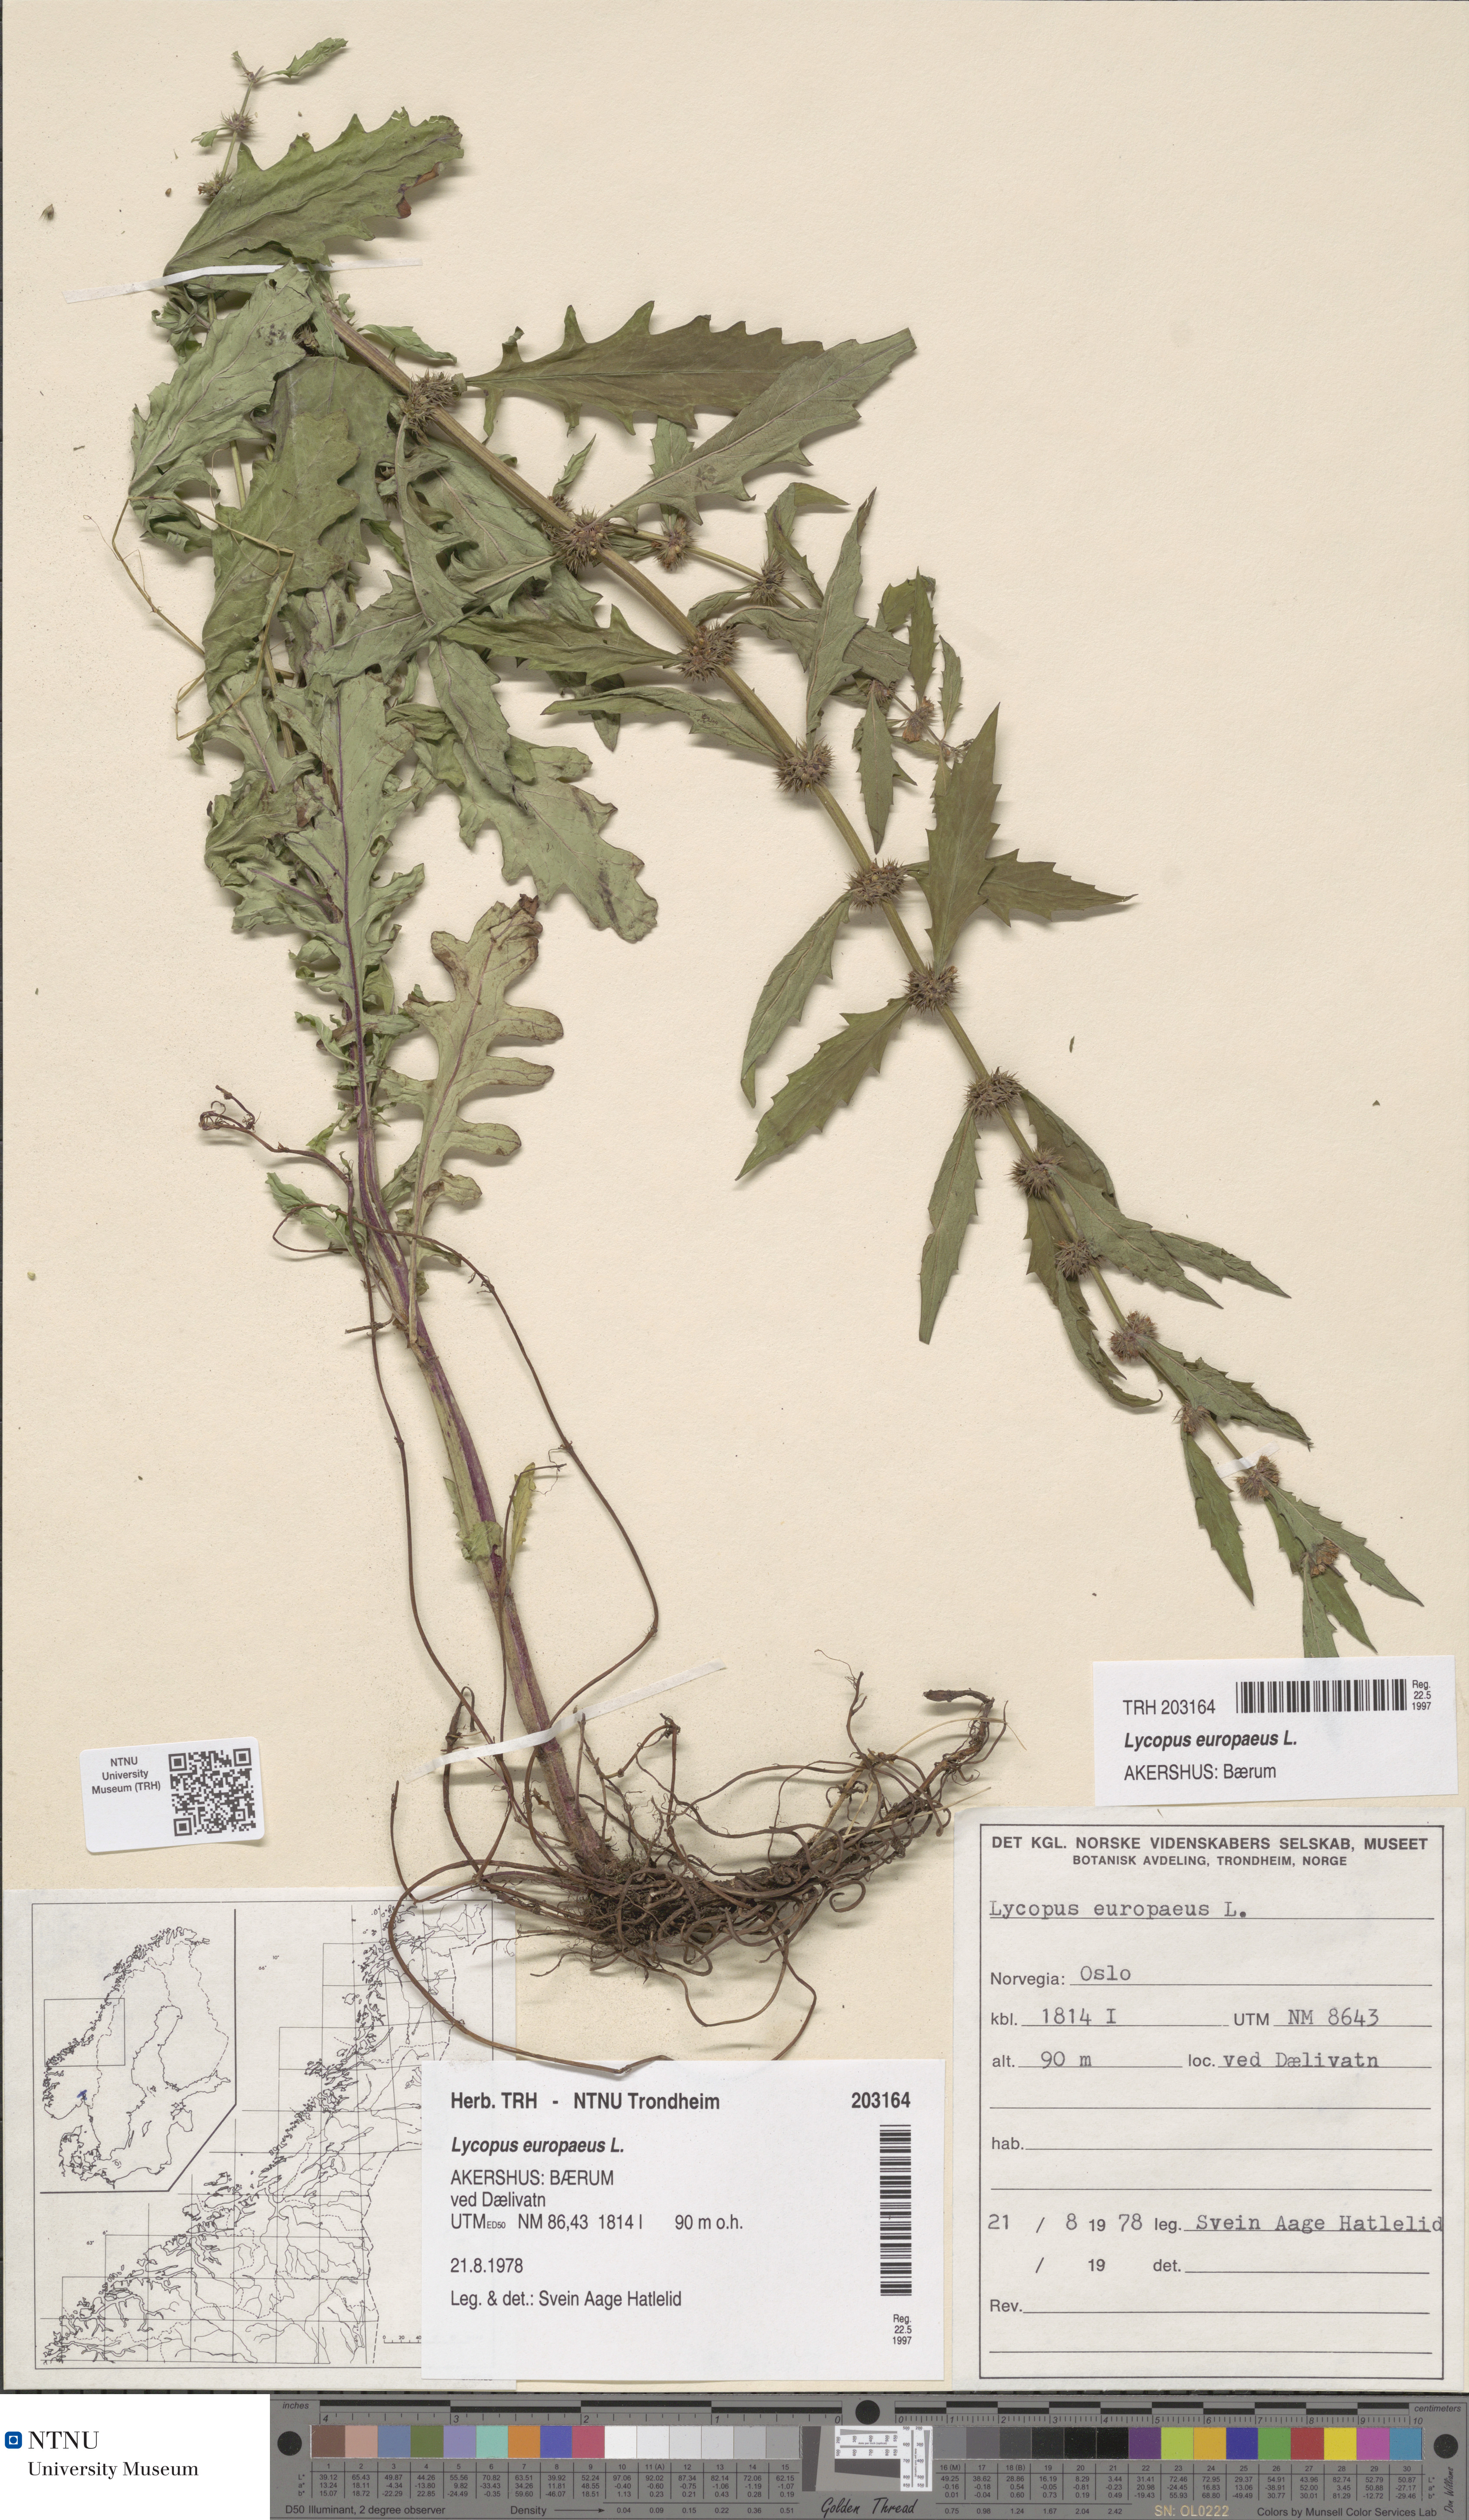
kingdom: Plantae
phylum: Tracheophyta
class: Magnoliopsida
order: Lamiales
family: Lamiaceae
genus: Lycopus
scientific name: Lycopus europaeus
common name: European bugleweed
